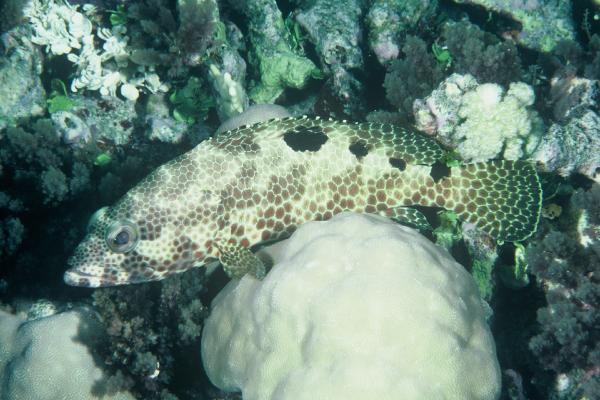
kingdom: Animalia
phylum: Chordata
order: Perciformes
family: Serranidae
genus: Epinephelus
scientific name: Epinephelus spilotoceps
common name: Foursaddle grouper
